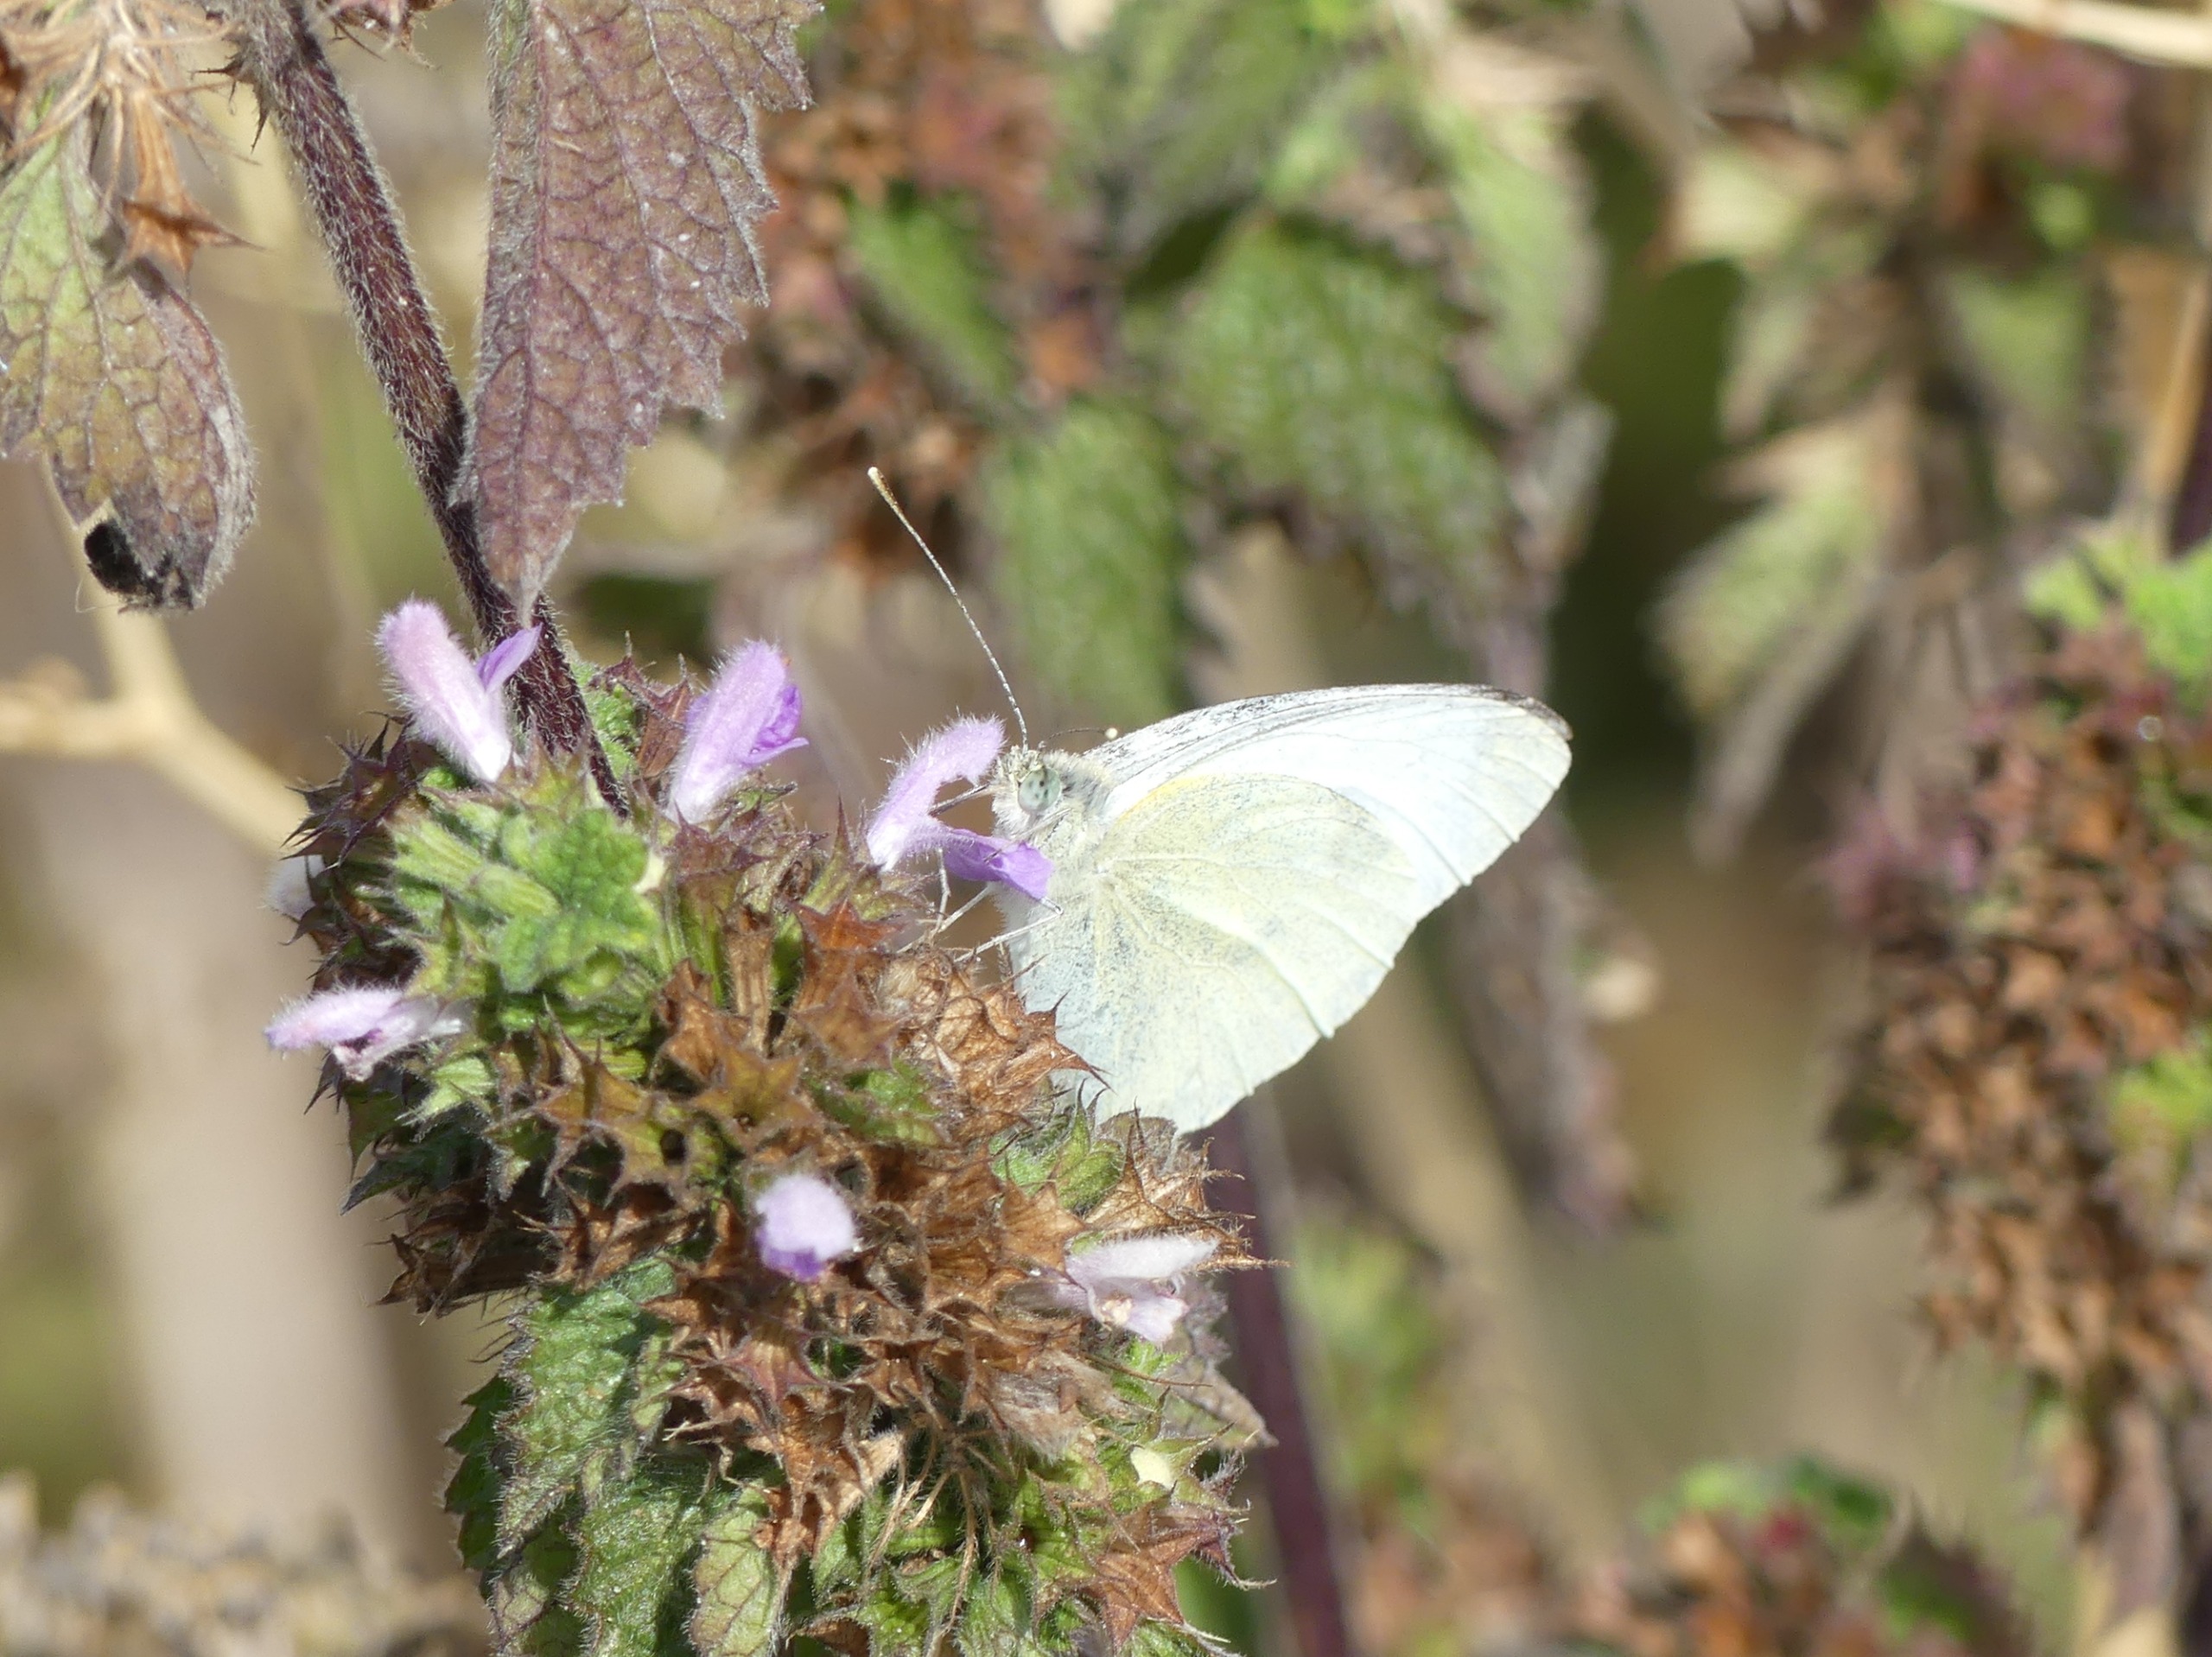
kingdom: Animalia
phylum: Arthropoda
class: Insecta
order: Lepidoptera
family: Pieridae
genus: Pieris
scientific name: Pieris rapae
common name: Lille kålsommerfugl
